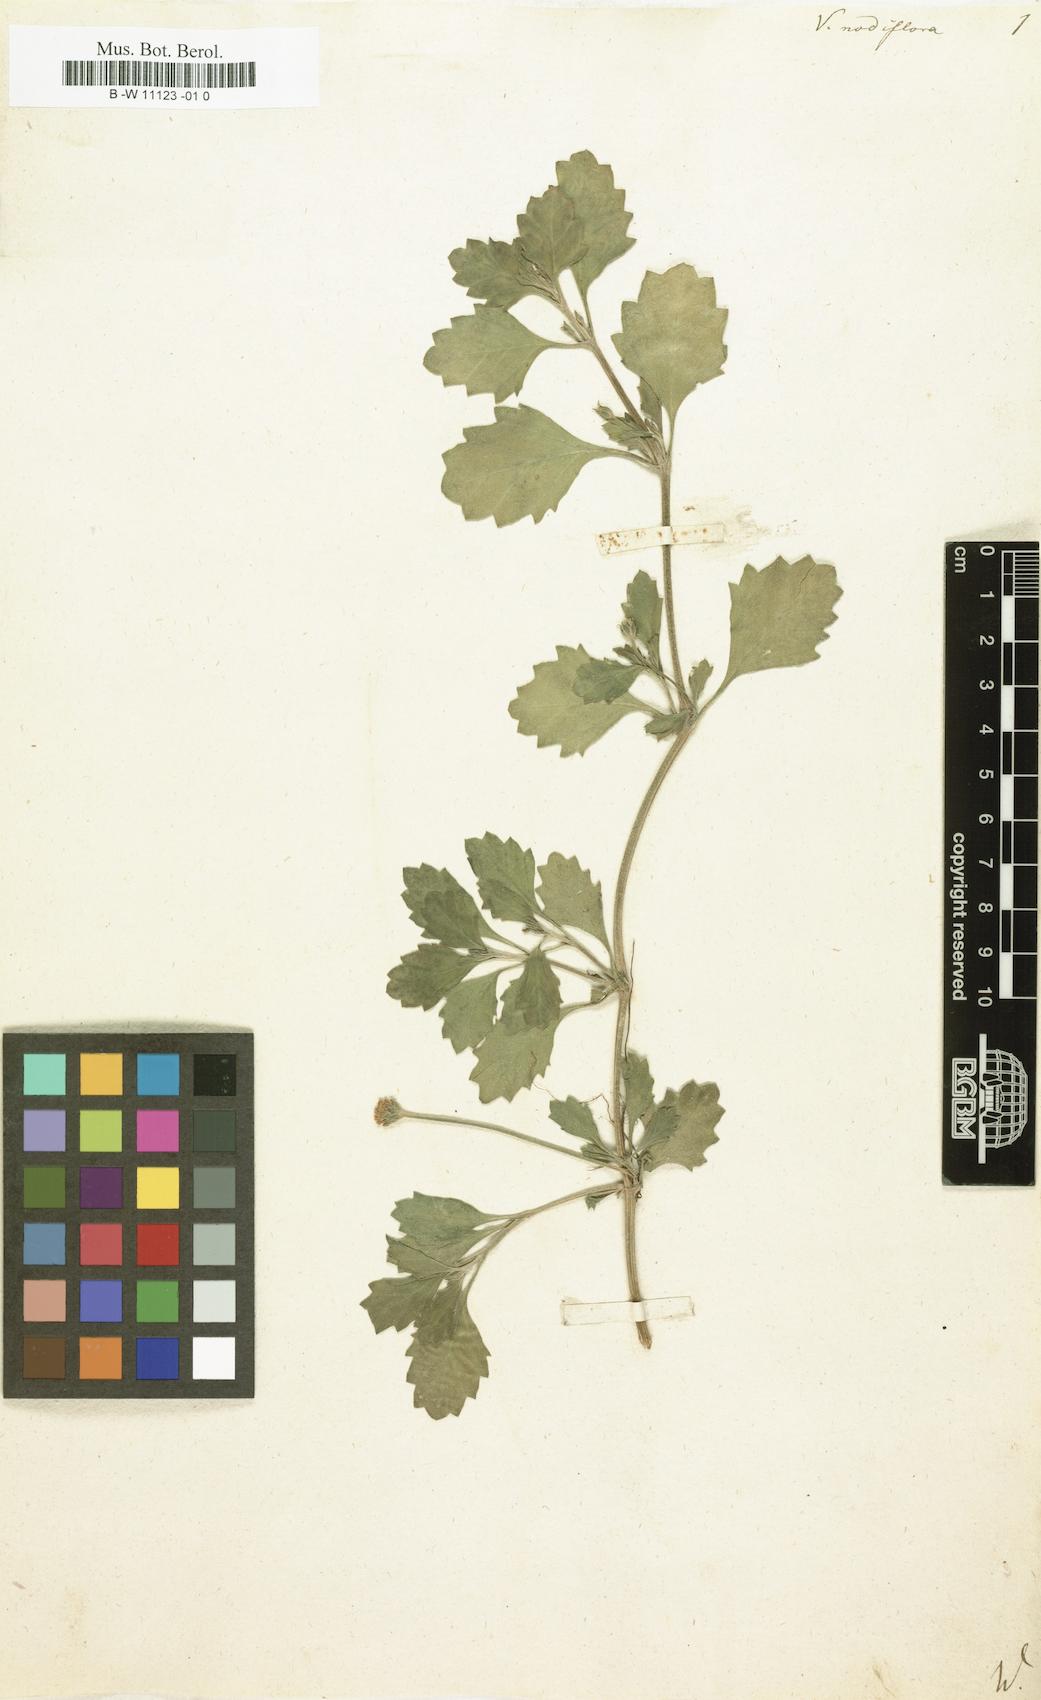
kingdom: Plantae
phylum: Tracheophyta
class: Magnoliopsida
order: Lamiales
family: Verbenaceae
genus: Verbena
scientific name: Verbena nodiflora
